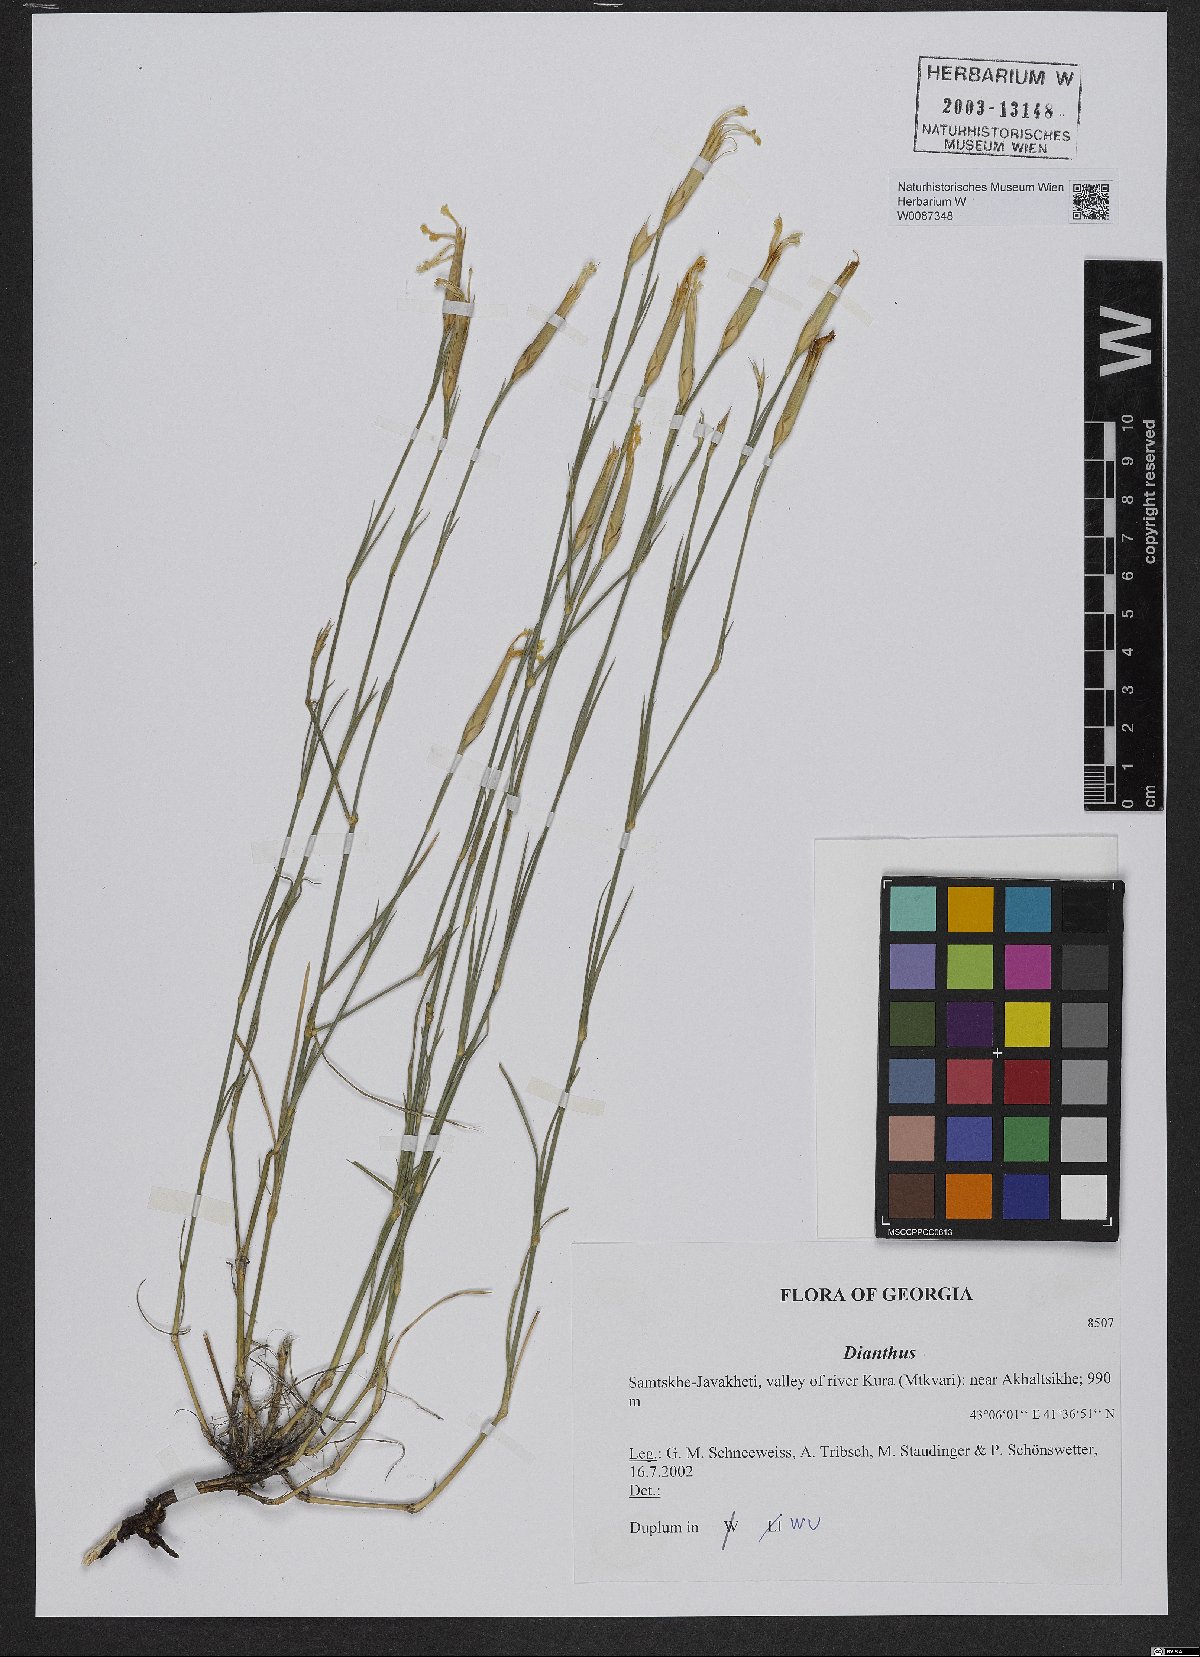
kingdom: Plantae
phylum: Tracheophyta
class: Magnoliopsida
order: Caryophyllales
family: Caryophyllaceae
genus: Dianthus
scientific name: Dianthus
